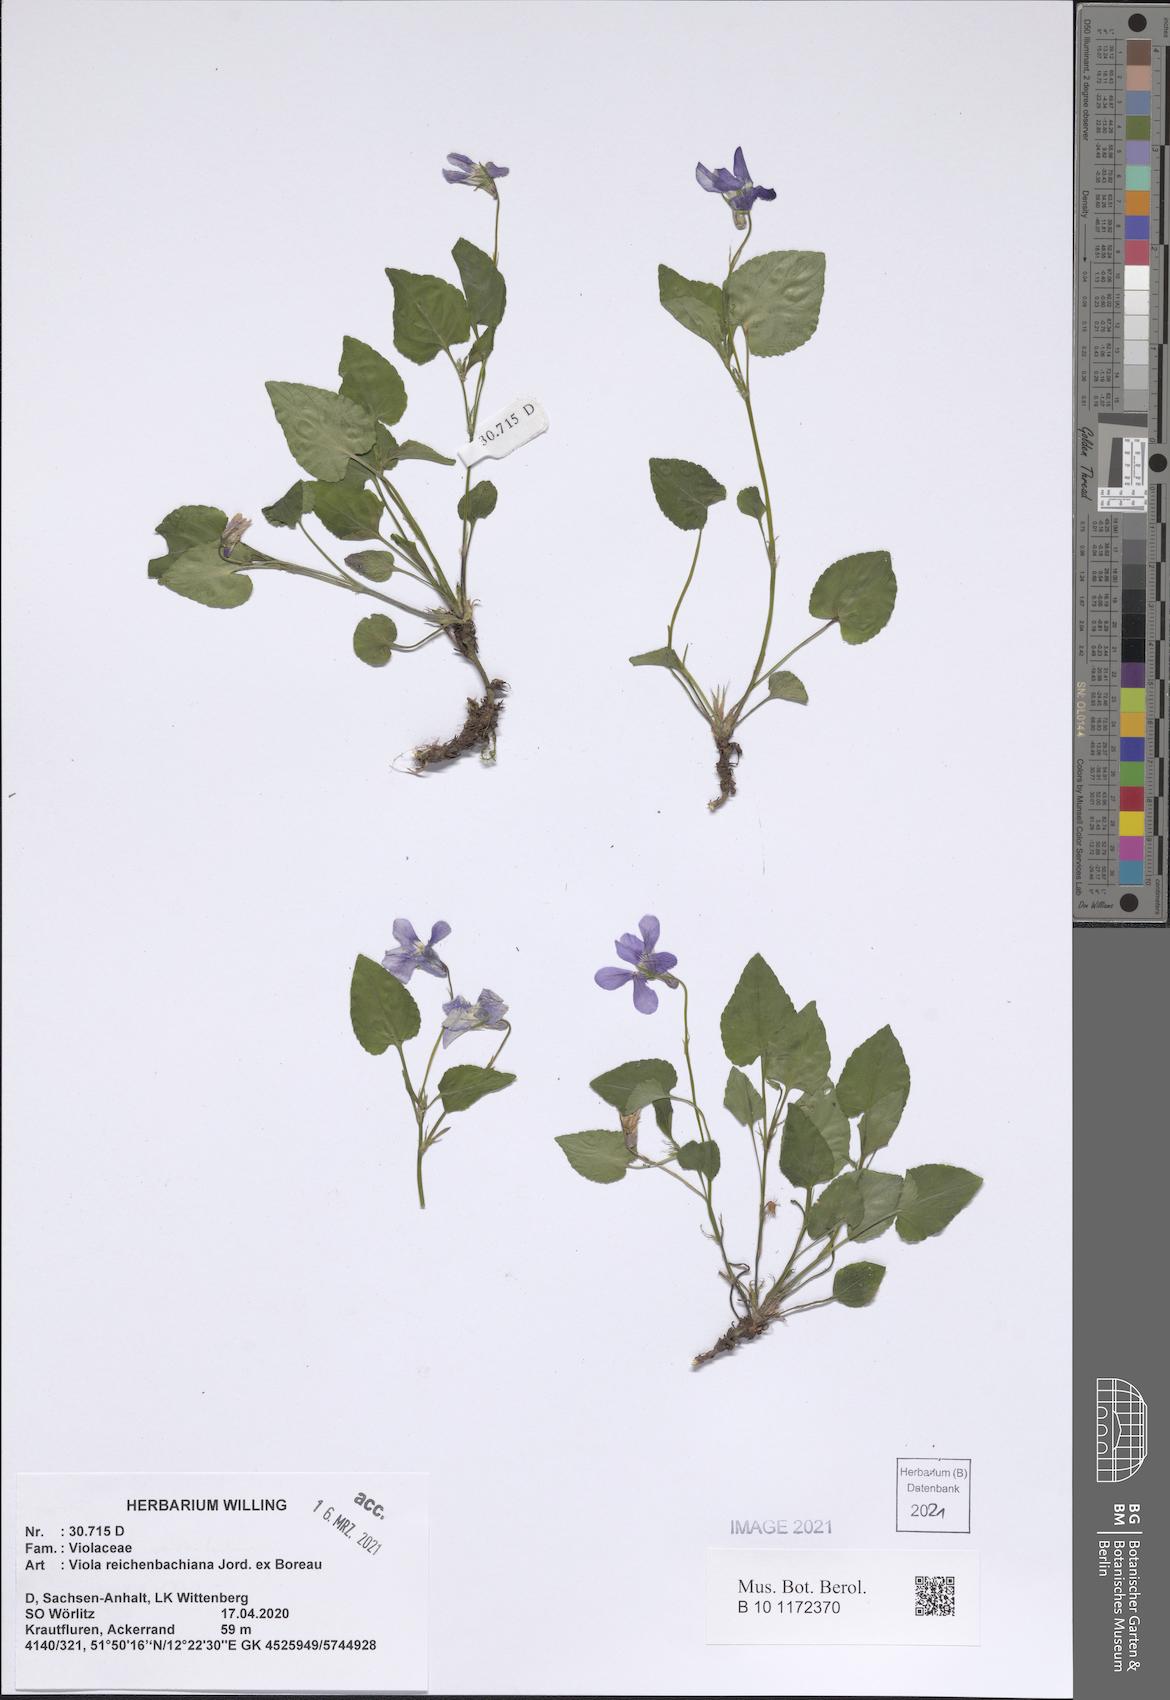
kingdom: Plantae
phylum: Tracheophyta
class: Magnoliopsida
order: Malpighiales
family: Violaceae
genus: Viola
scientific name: Viola reichenbachiana
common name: Early dog-violet
